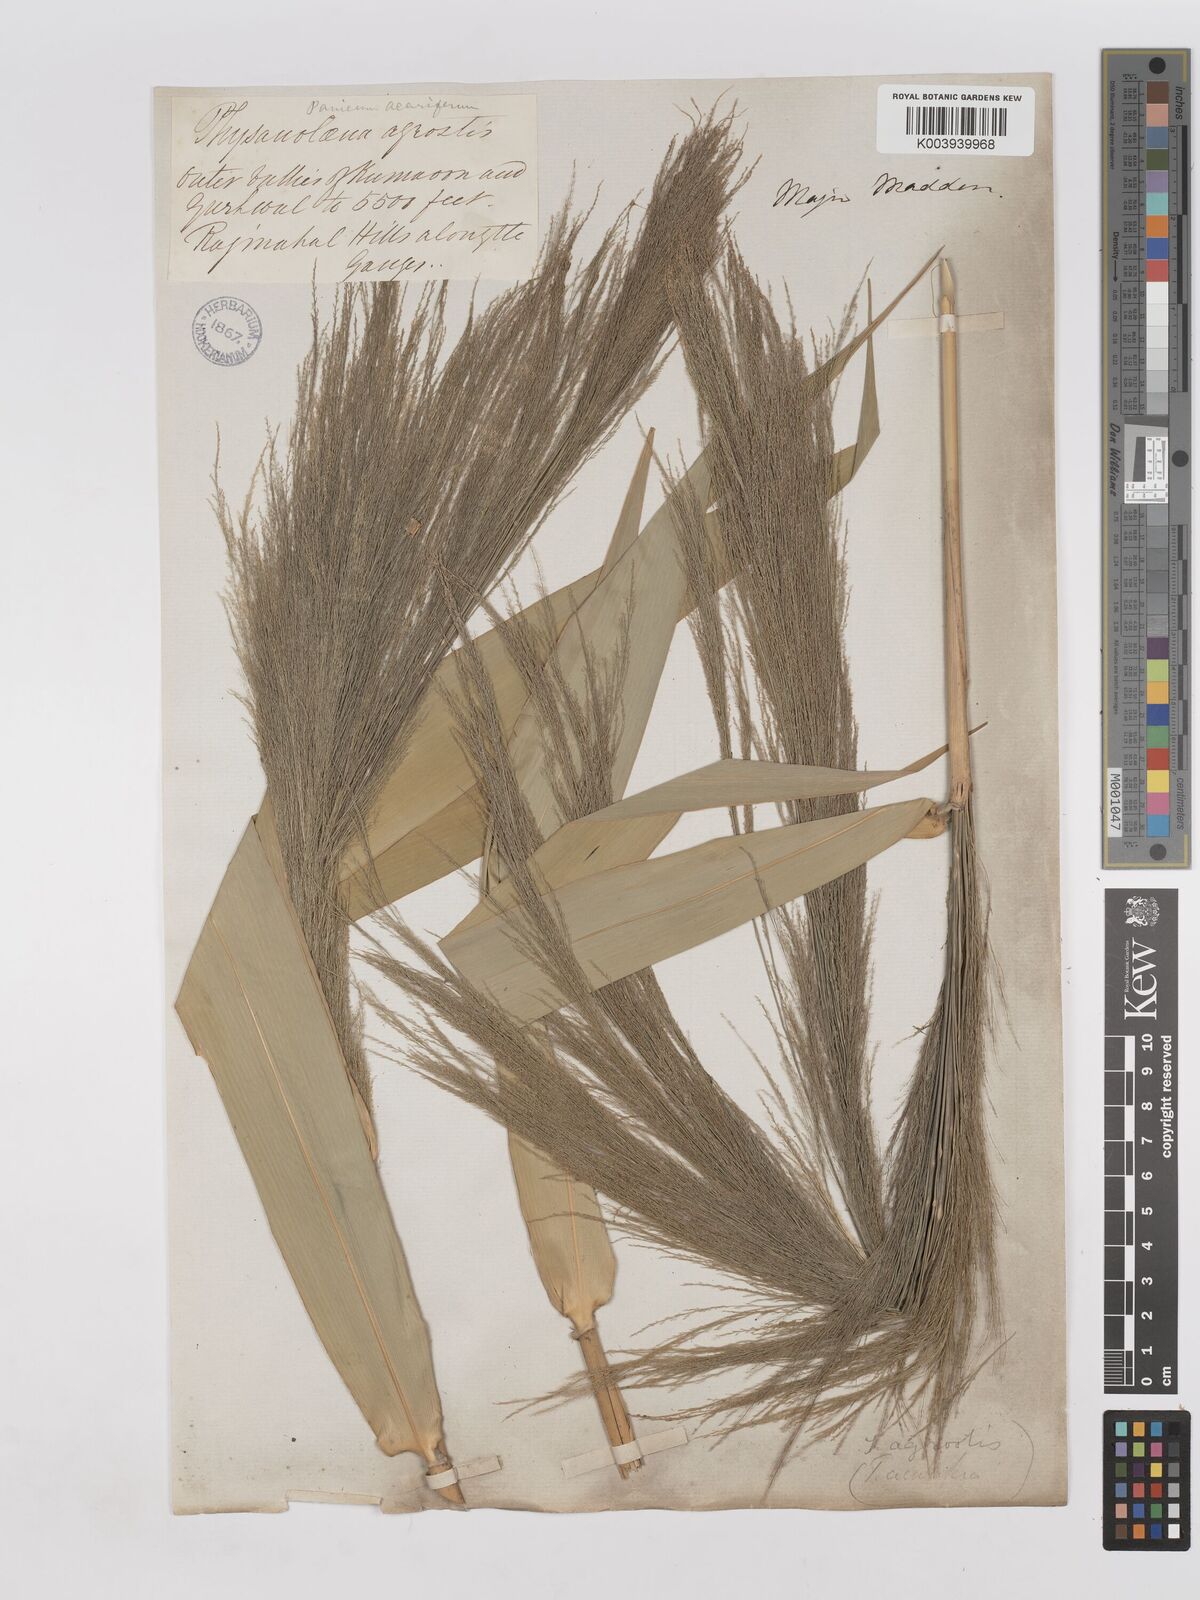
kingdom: Plantae
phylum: Tracheophyta
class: Liliopsida
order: Poales
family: Poaceae
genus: Thysanolaena
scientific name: Thysanolaena latifolia
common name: Tiger grass
